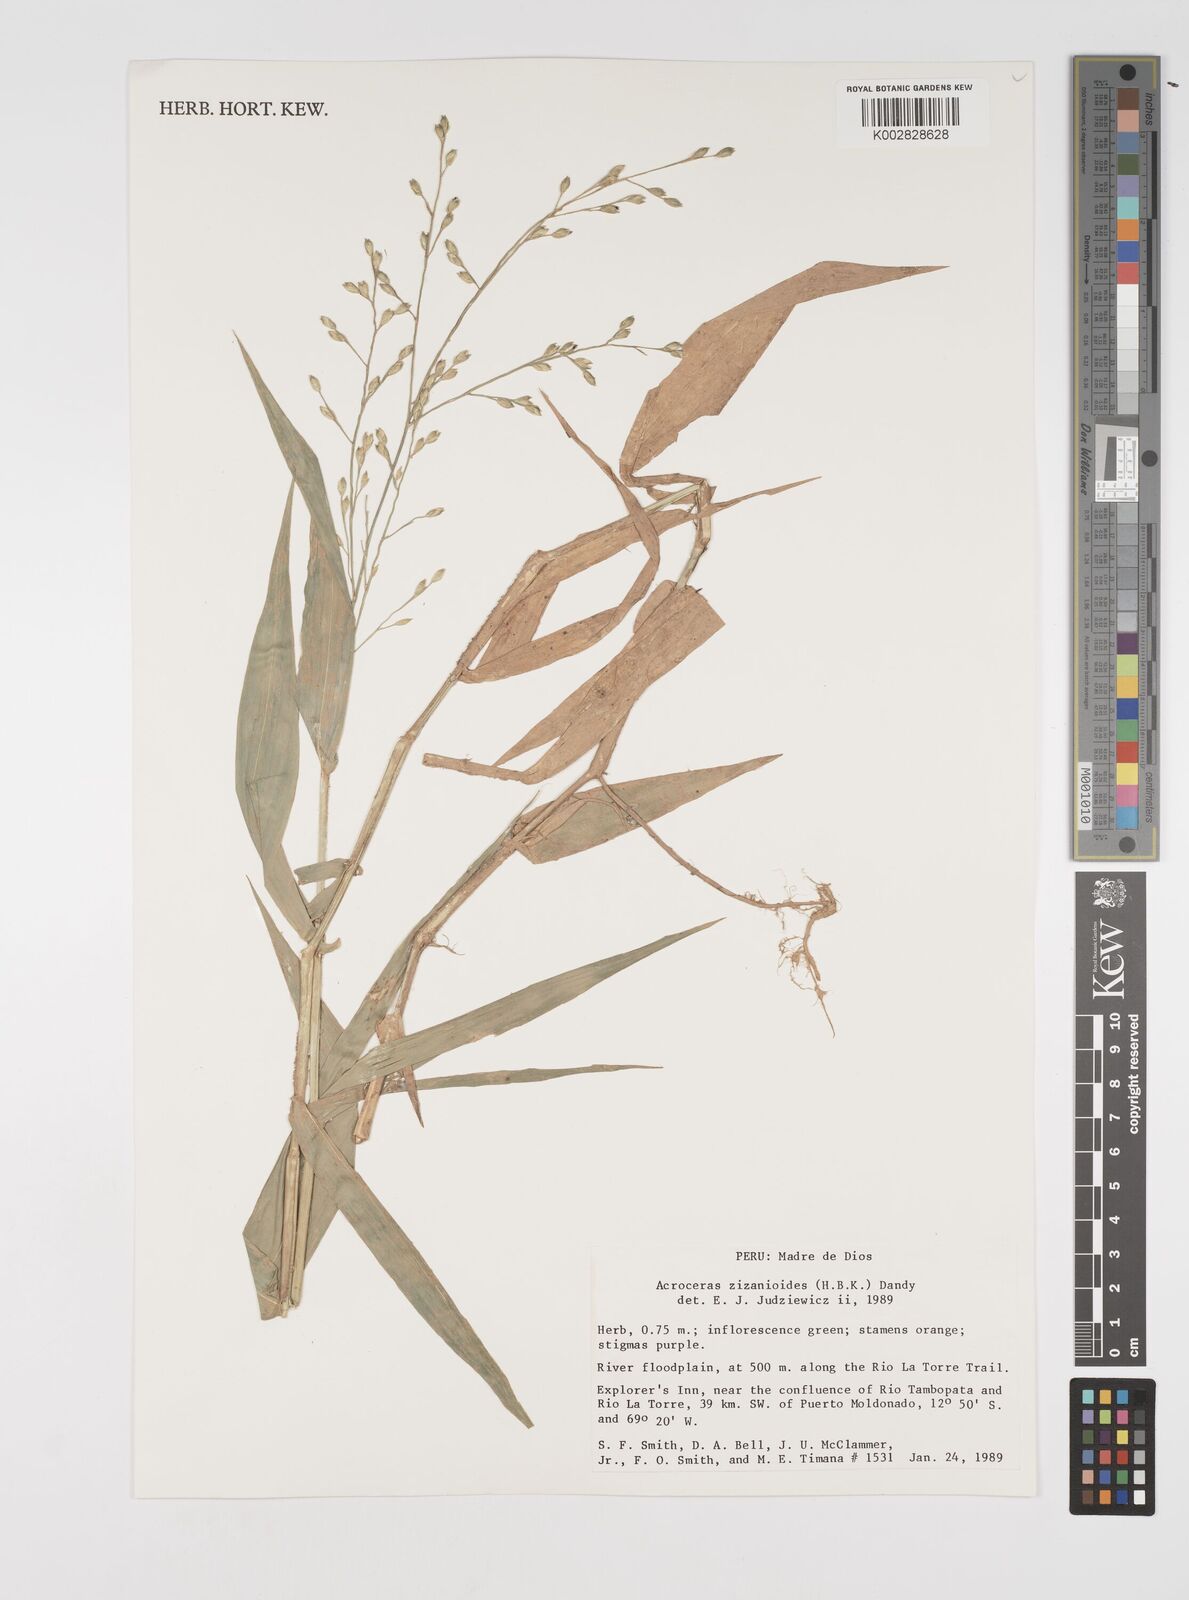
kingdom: Plantae
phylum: Tracheophyta
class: Liliopsida
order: Poales
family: Poaceae
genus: Acroceras
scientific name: Acroceras zizanioides
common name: Oat grass
